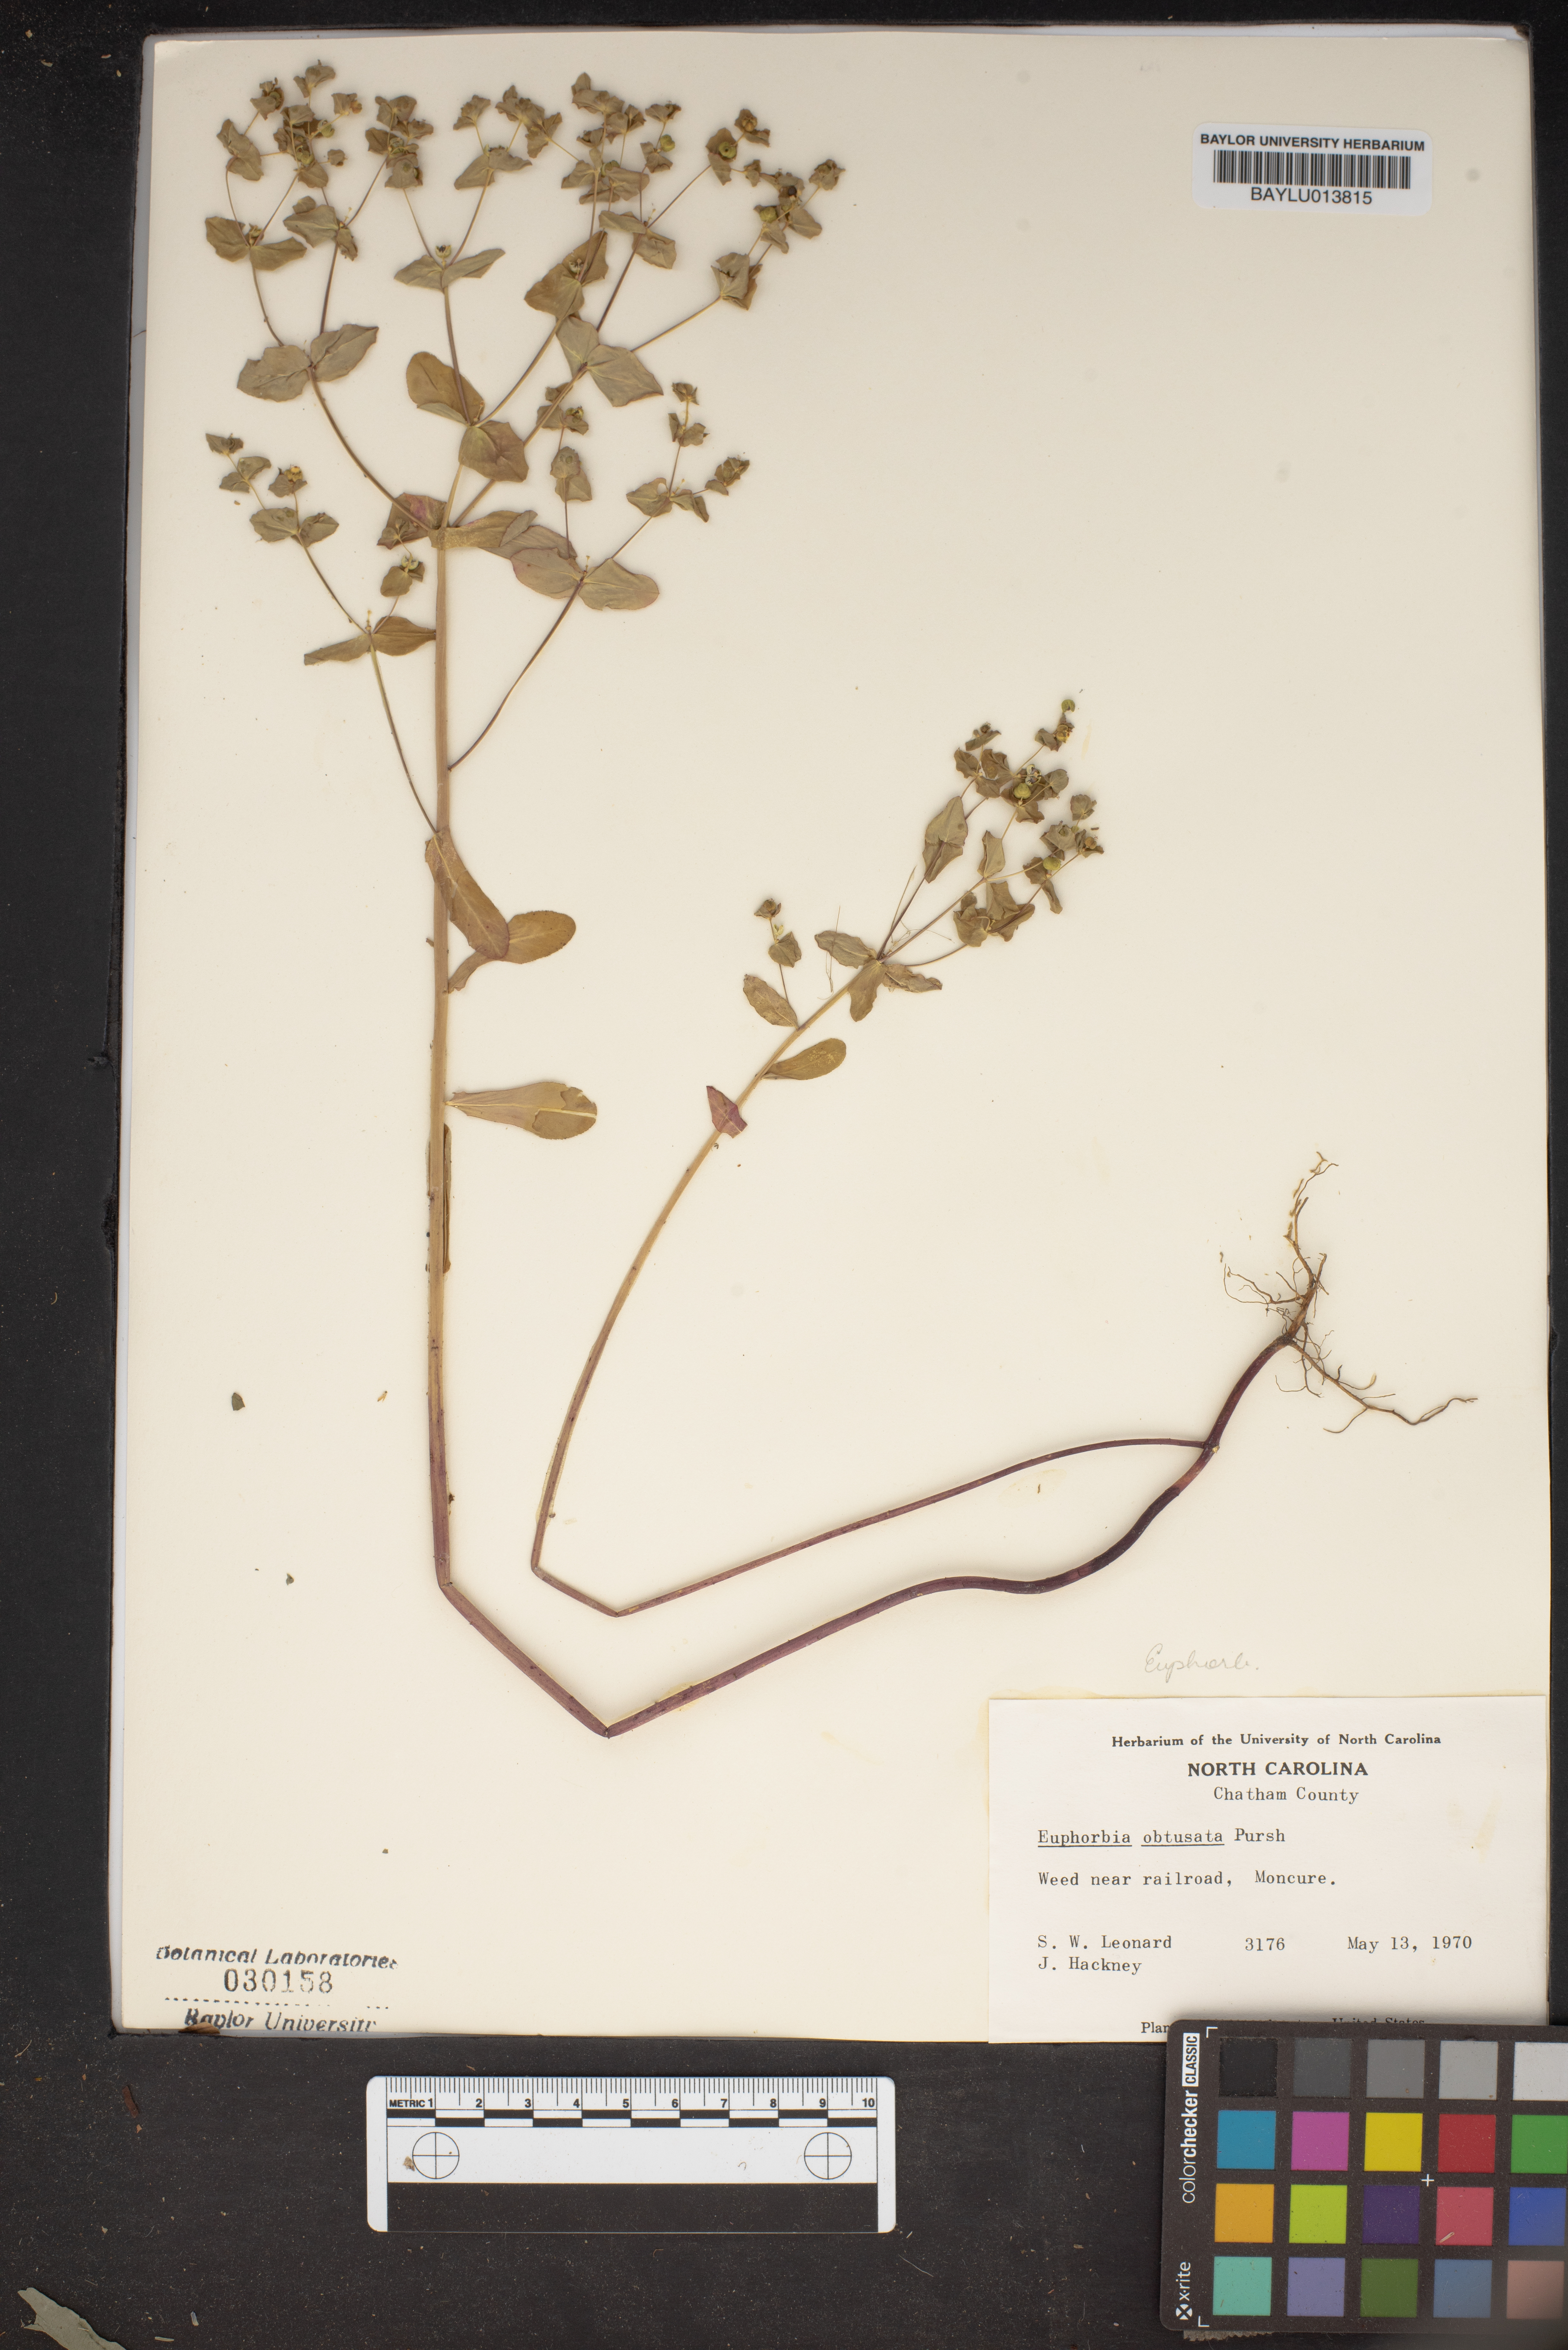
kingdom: Plantae
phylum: Tracheophyta
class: Magnoliopsida
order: Malpighiales
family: Euphorbiaceae
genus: Euphorbia
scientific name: Euphorbia spathulata
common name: Blunt spurge
